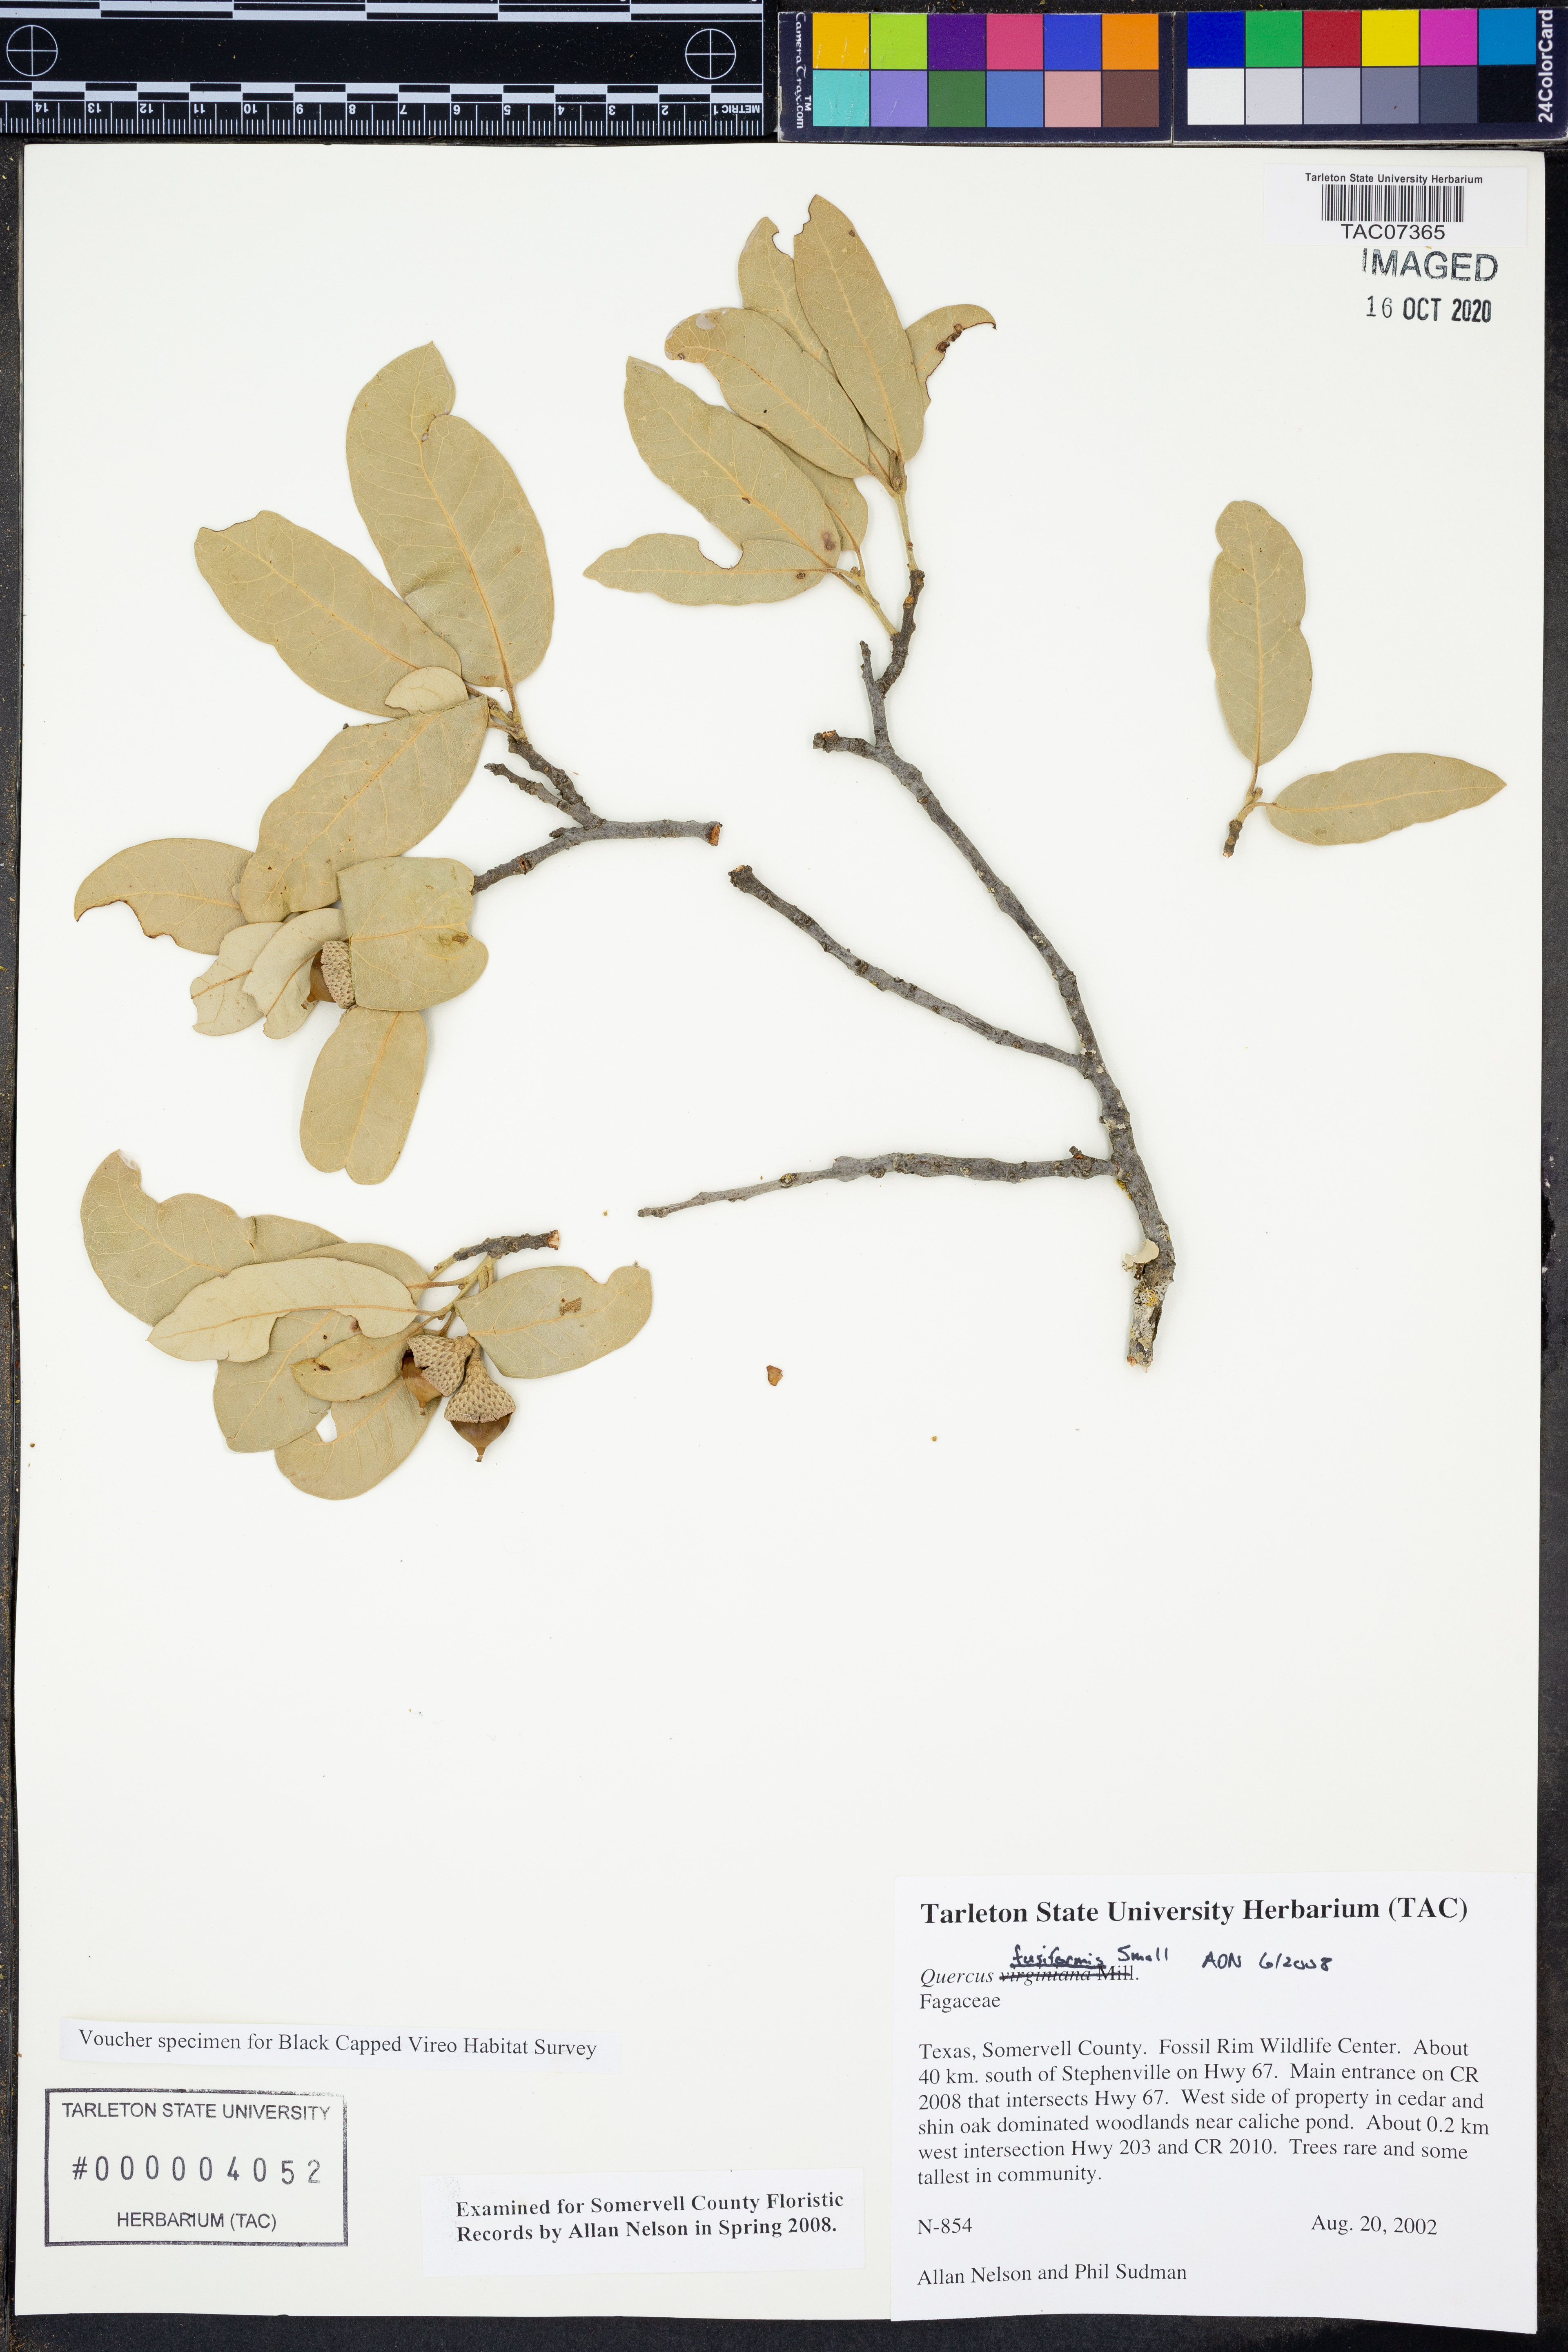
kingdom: Plantae
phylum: Tracheophyta
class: Magnoliopsida
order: Fagales
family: Fagaceae
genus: Quercus
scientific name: Quercus fusiformis
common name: Texas live oak
